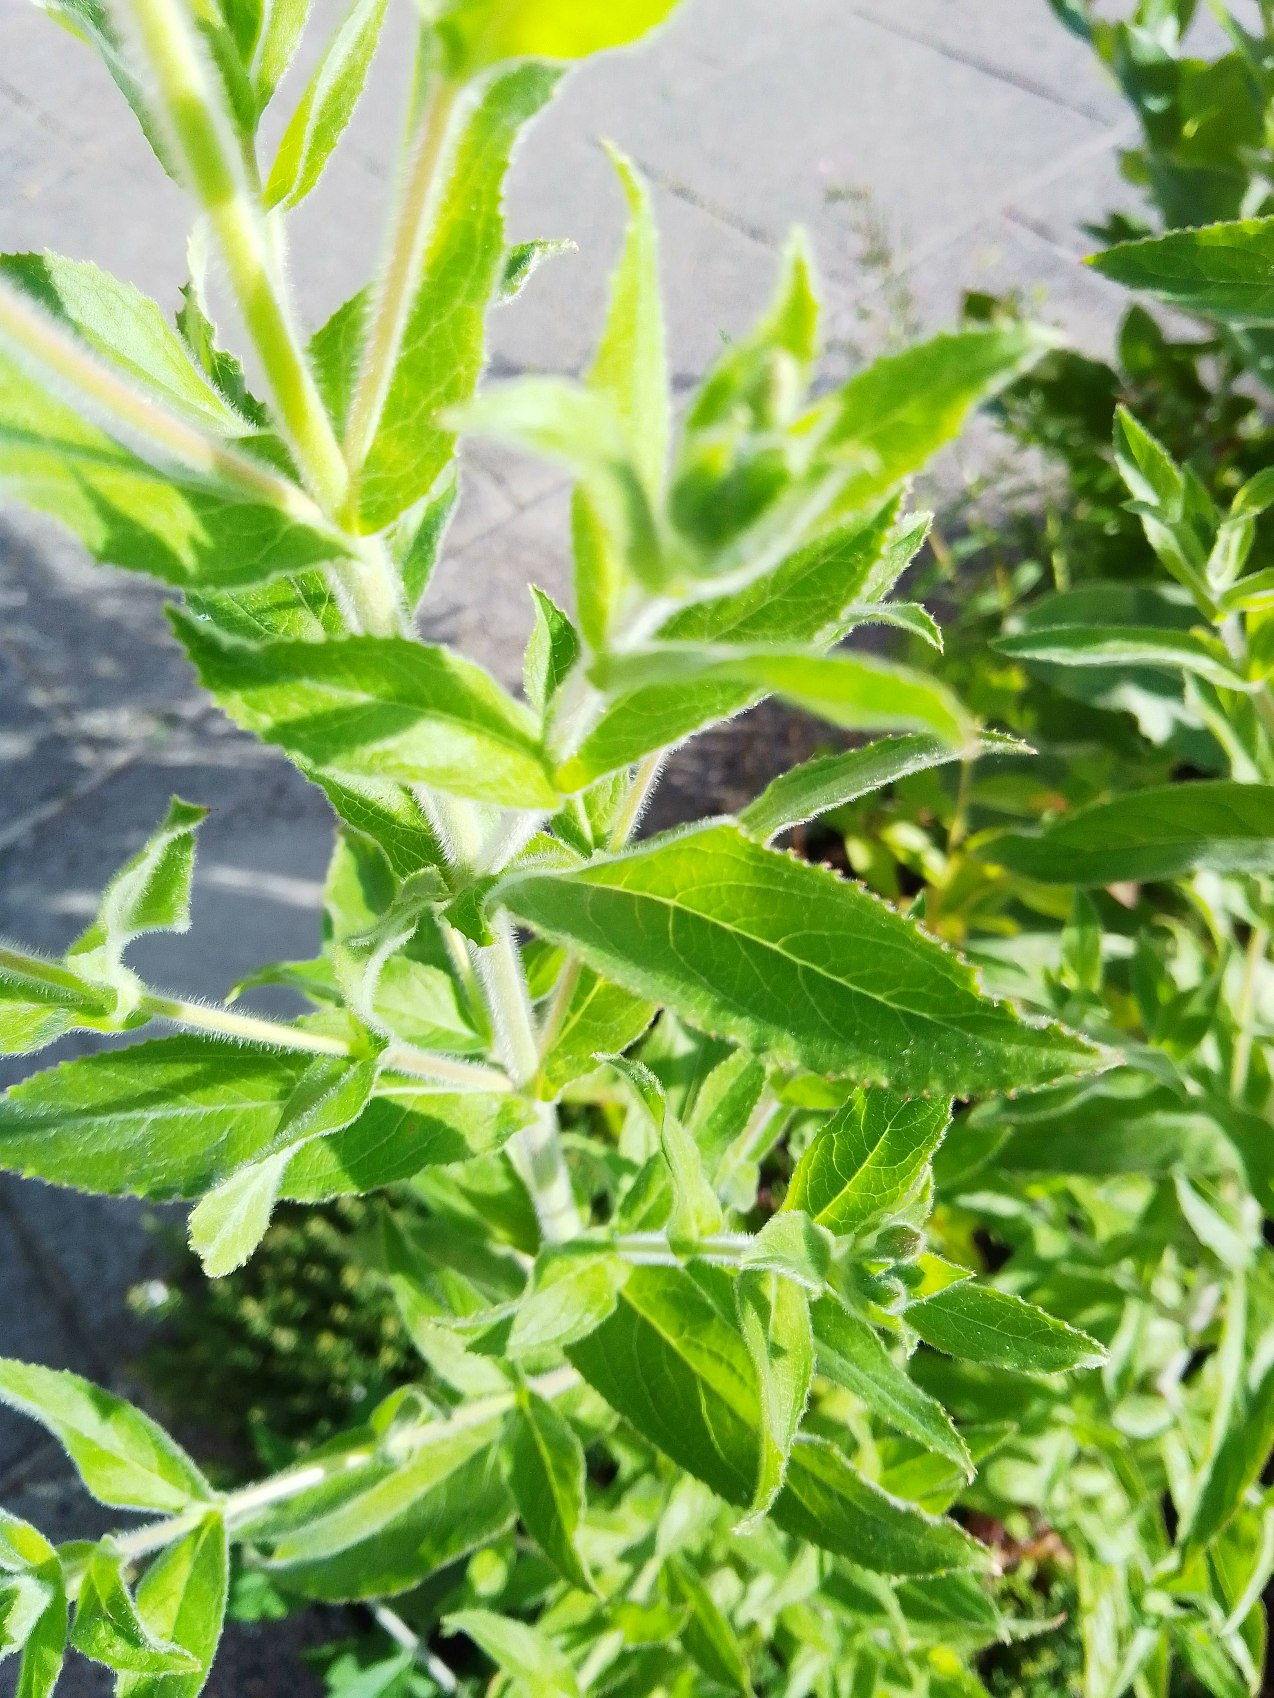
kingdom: Plantae
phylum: Tracheophyta
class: Magnoliopsida
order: Myrtales
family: Onagraceae
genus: Epilobium
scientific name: Epilobium hirsutum
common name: Lådden dueurt
